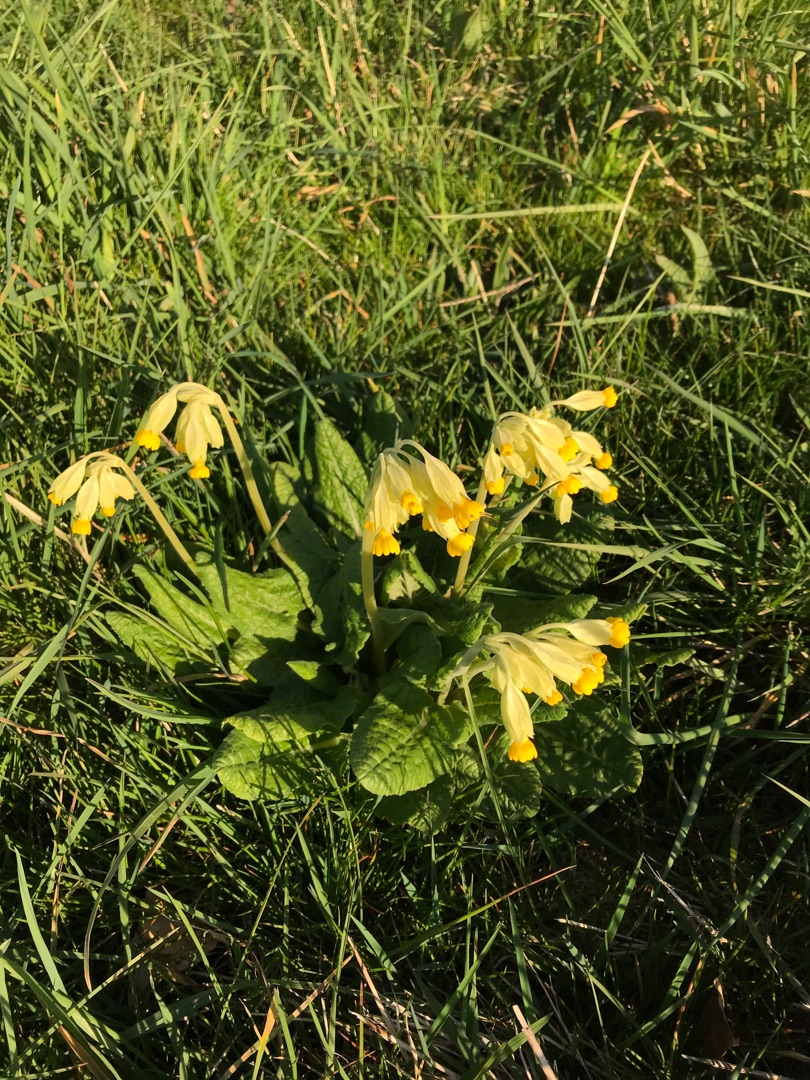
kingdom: Plantae
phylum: Tracheophyta
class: Magnoliopsida
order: Ericales
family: Primulaceae
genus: Primula
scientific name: Primula veris
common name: Hulkravet kodriver
